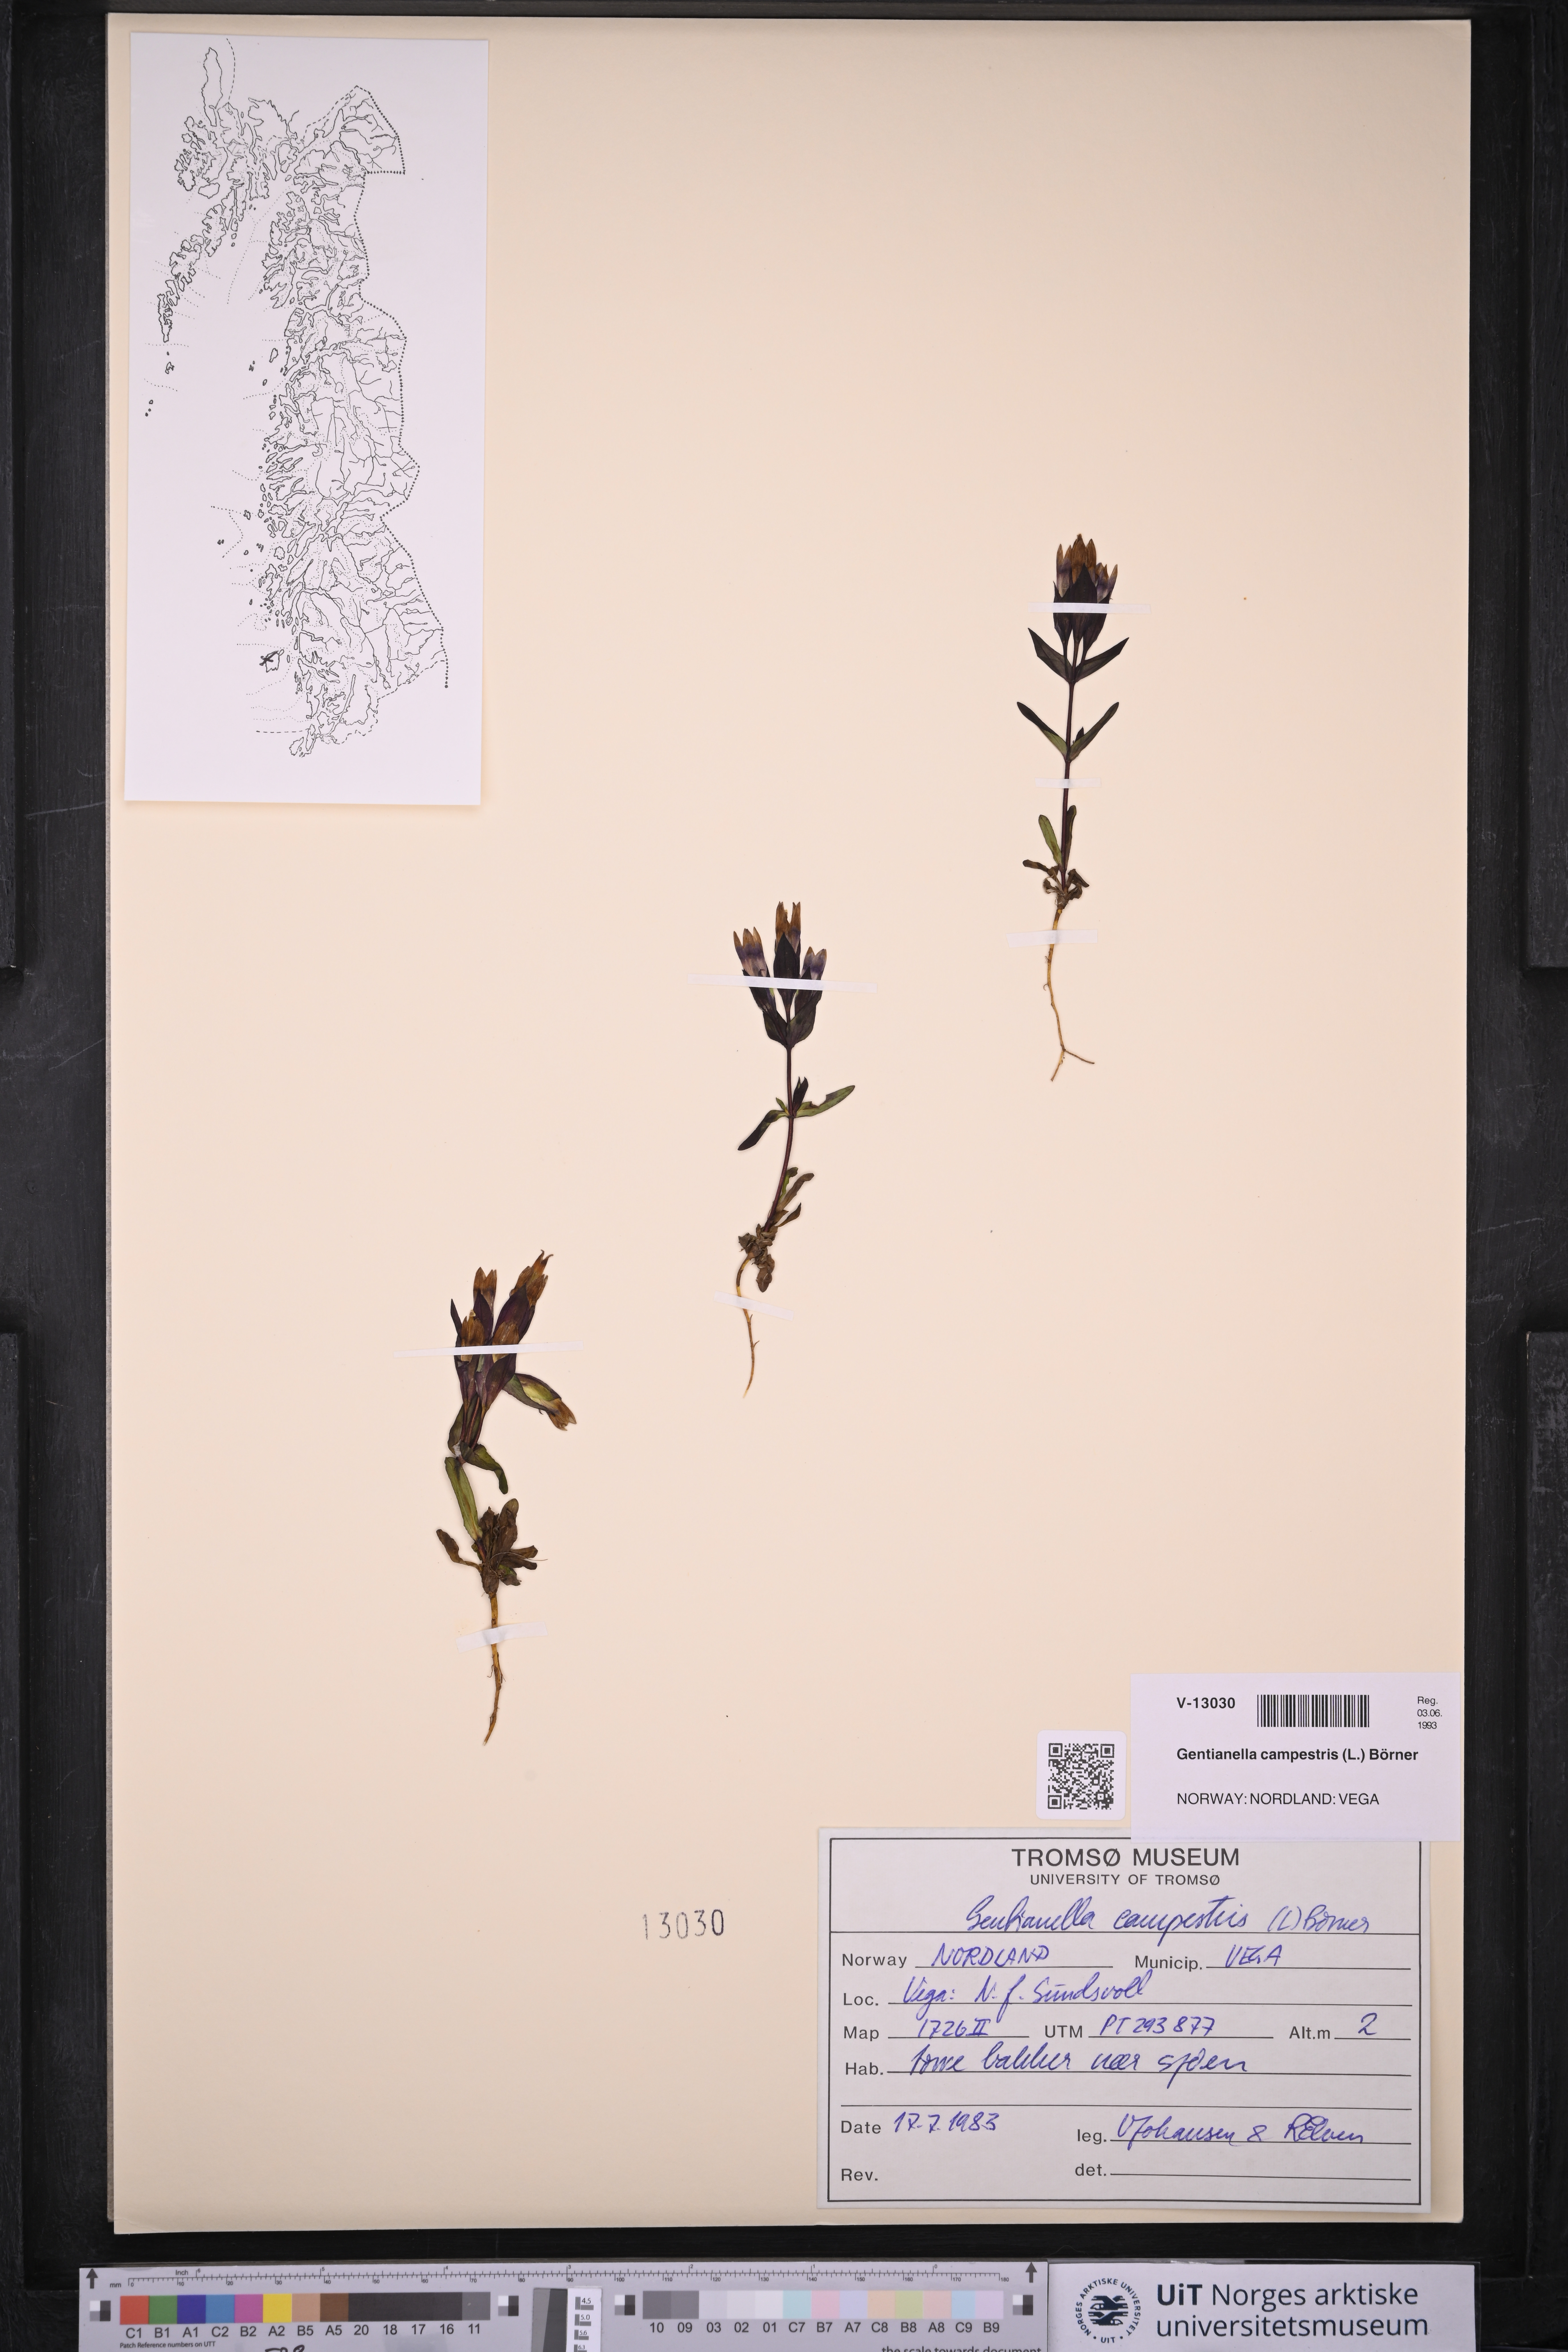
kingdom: Plantae
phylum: Tracheophyta
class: Magnoliopsida
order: Gentianales
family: Gentianaceae
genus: Gentianella
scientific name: Gentianella campestris
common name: Field gentian
